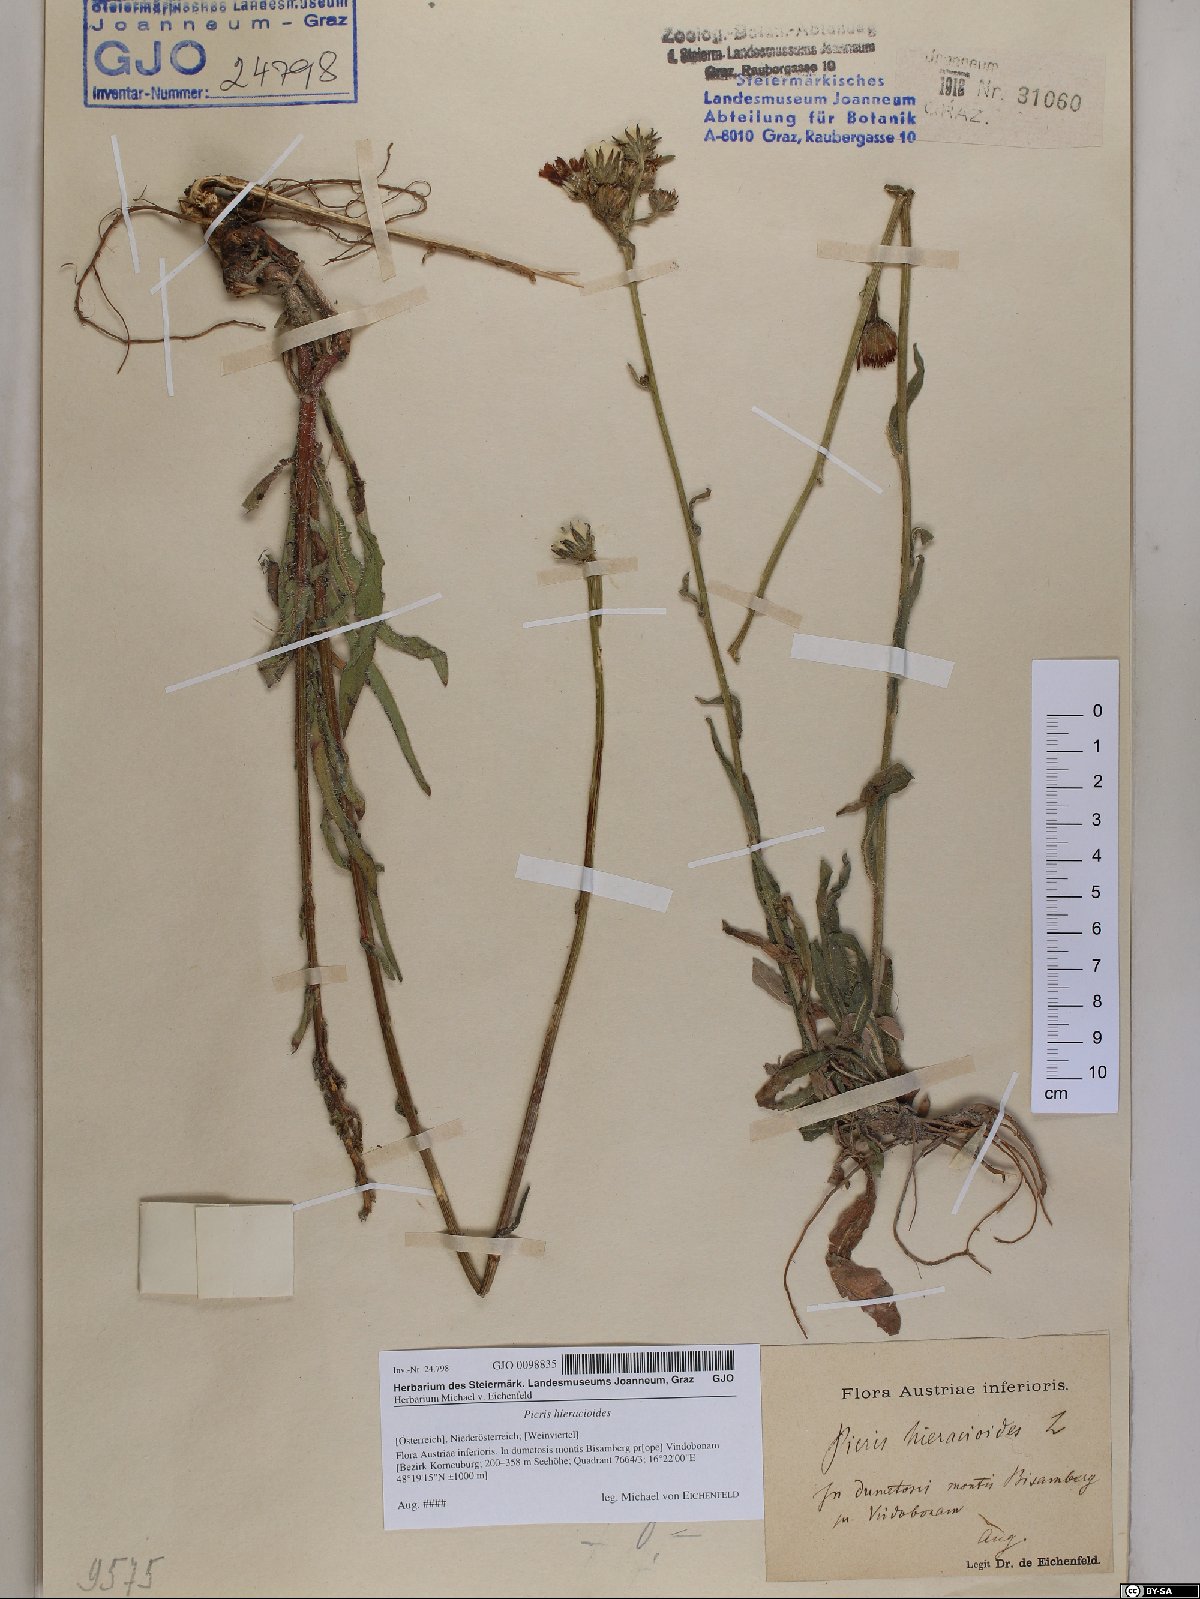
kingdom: Plantae
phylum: Tracheophyta
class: Magnoliopsida
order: Asterales
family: Asteraceae
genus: Picris
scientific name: Picris hieracioides
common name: Hawkweed oxtongue
